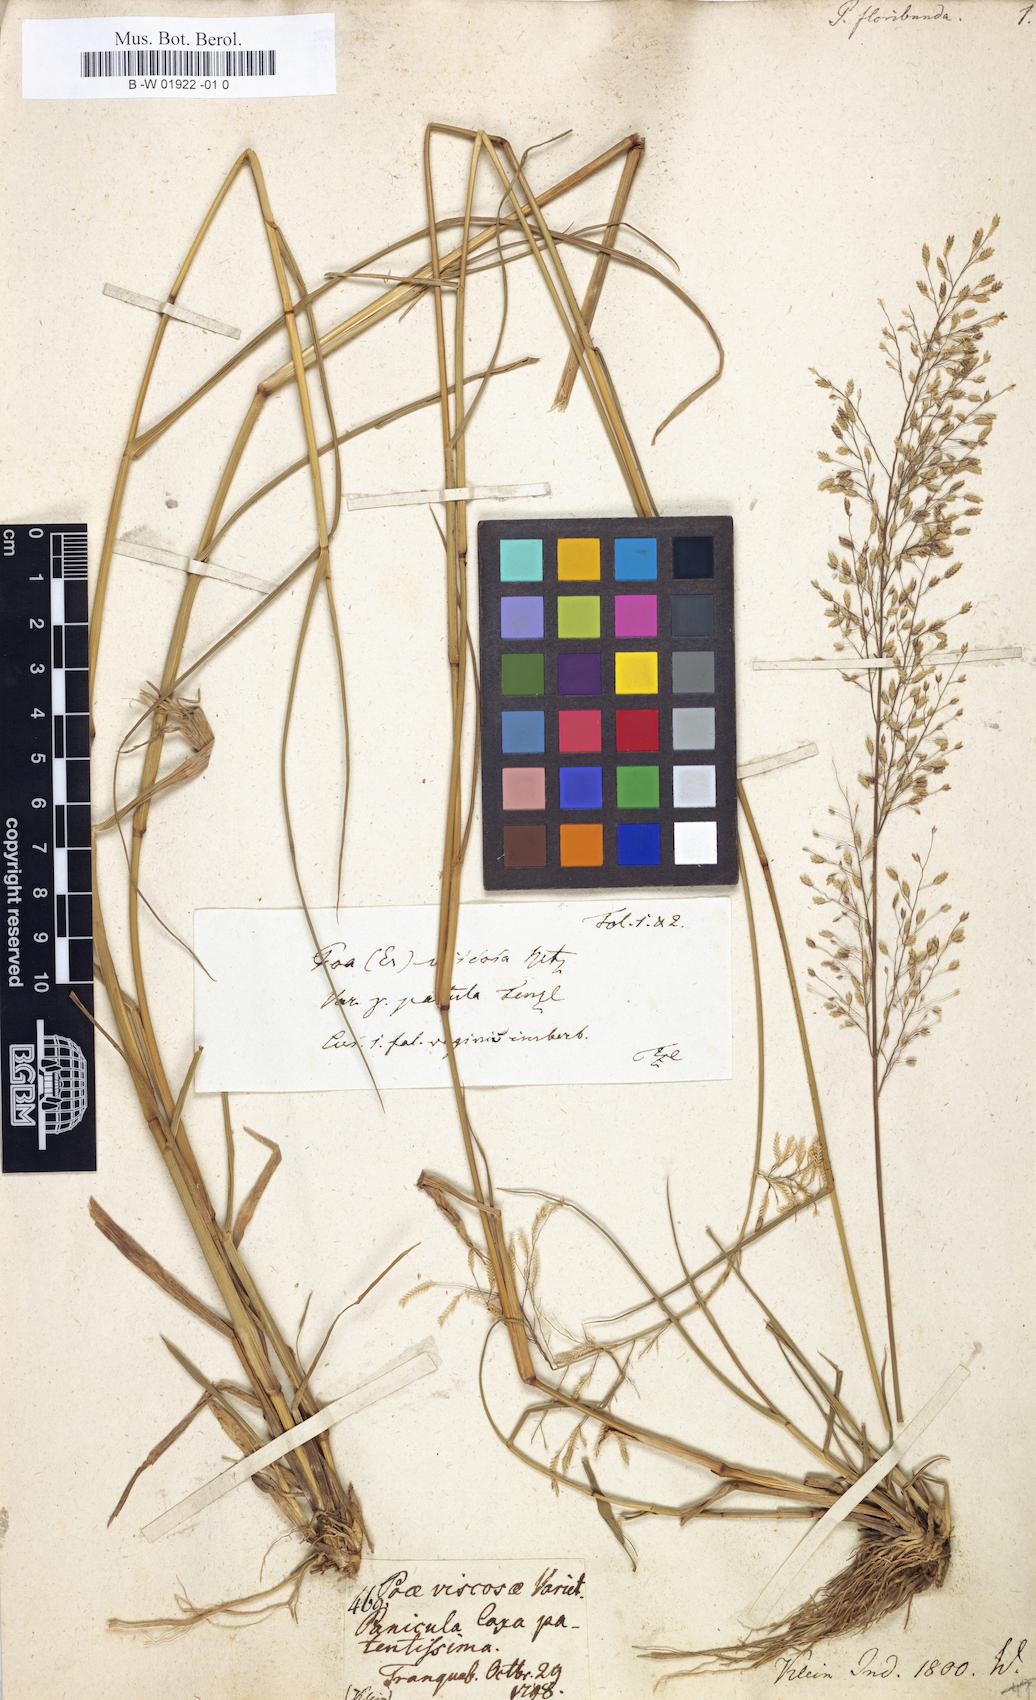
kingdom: Plantae
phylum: Tracheophyta
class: Liliopsida
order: Poales
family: Poaceae
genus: Eragrostis
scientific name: Eragrostis
